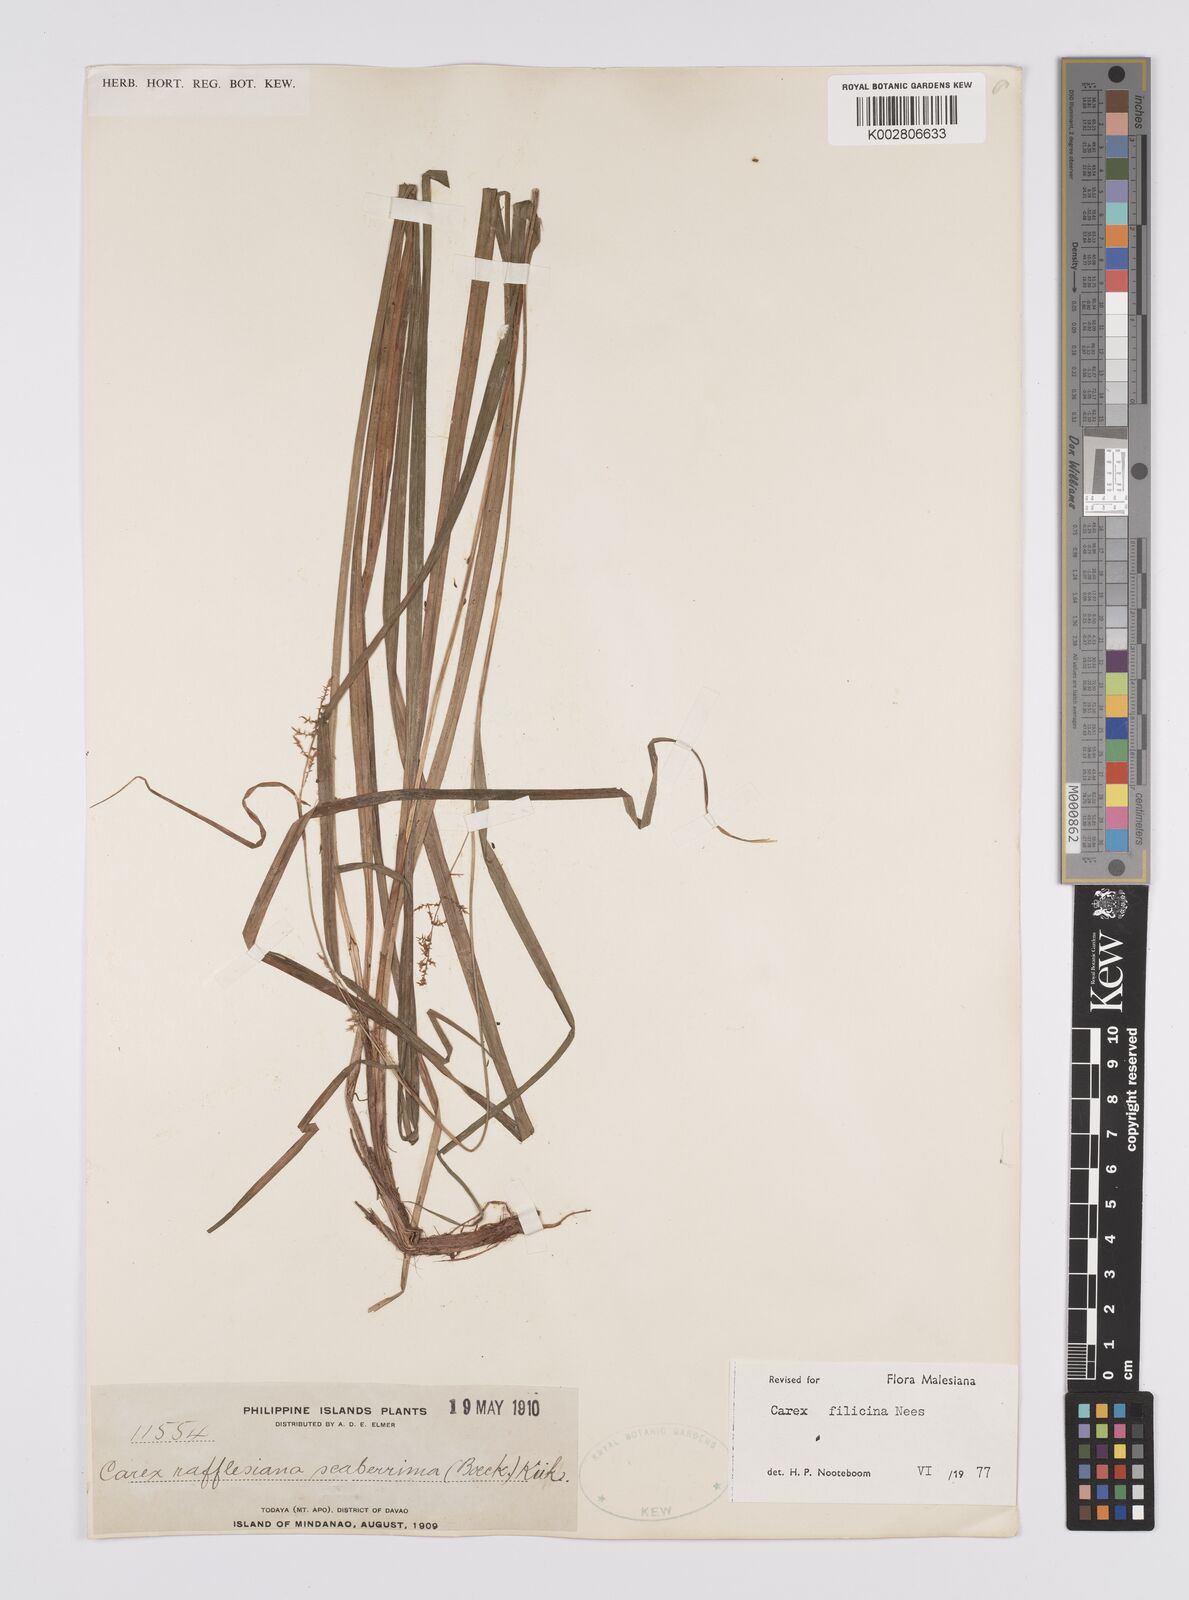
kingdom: Plantae
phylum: Tracheophyta
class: Liliopsida
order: Poales
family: Cyperaceae
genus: Carex
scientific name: Carex filicina
